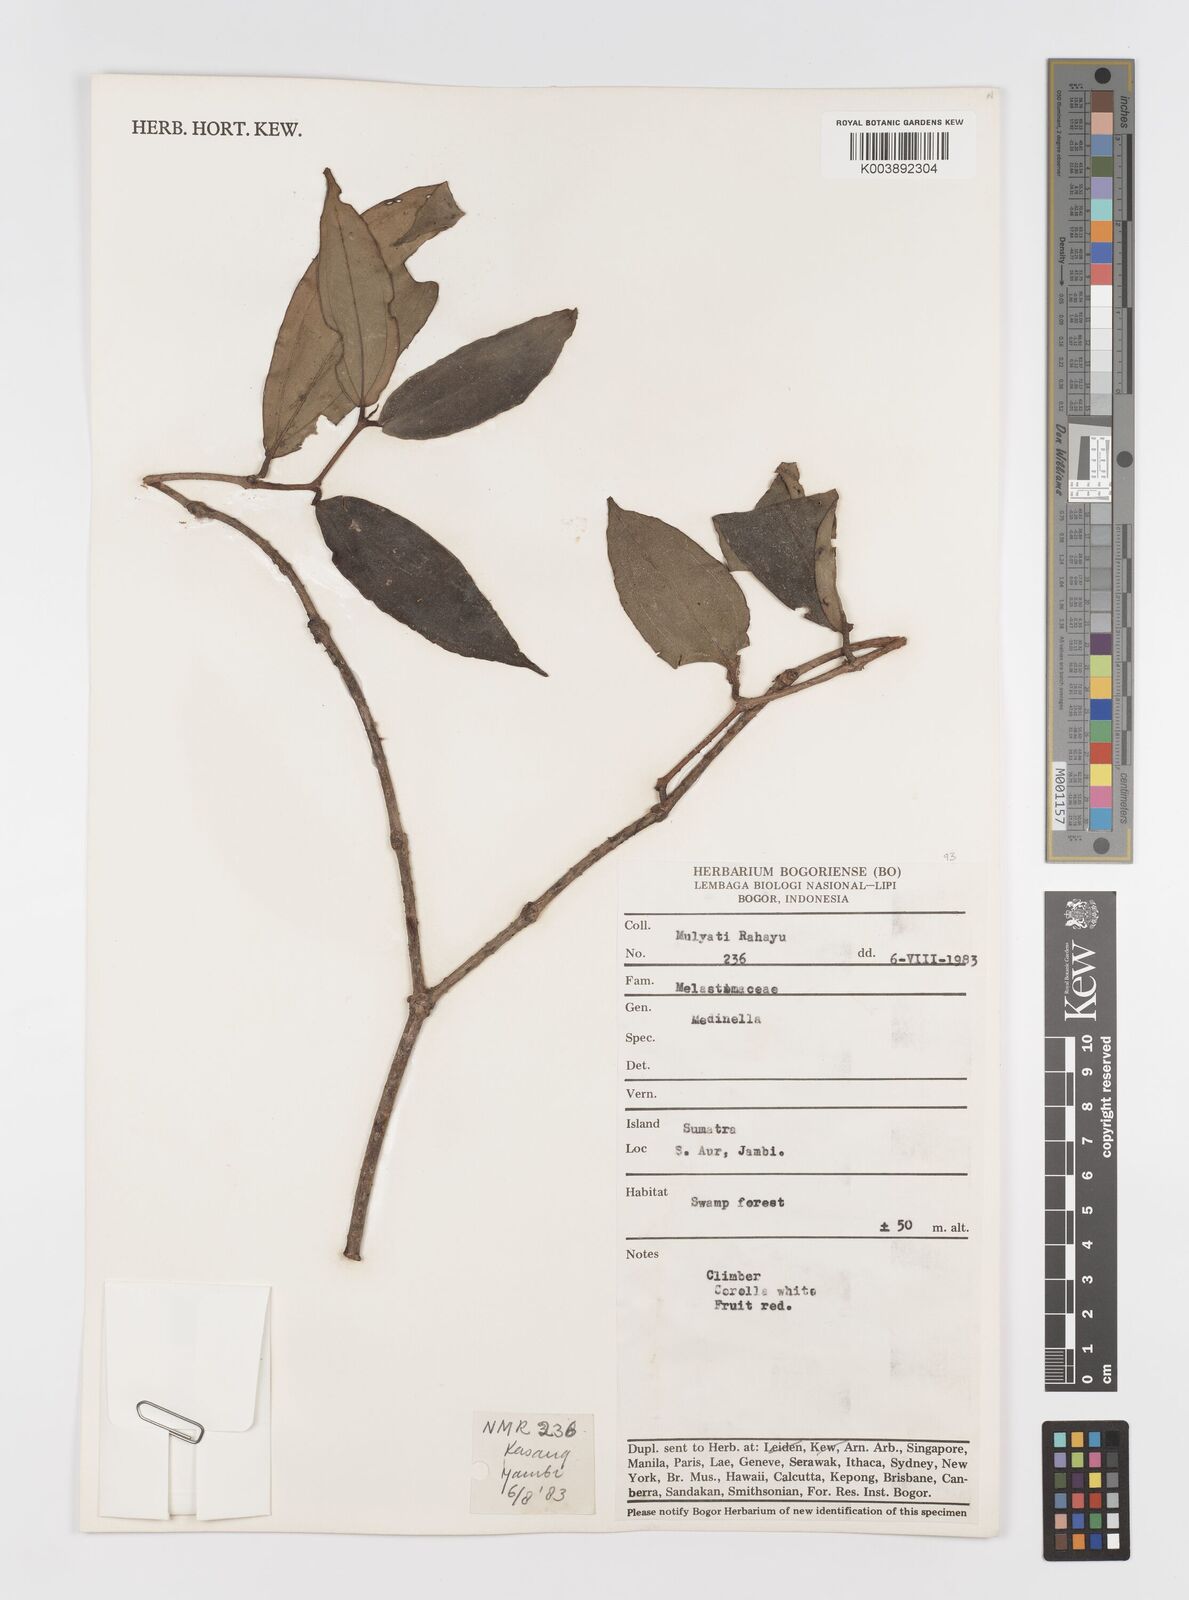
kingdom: Plantae
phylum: Tracheophyta
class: Magnoliopsida
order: Myrtales
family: Melastomataceae
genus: Medinilla
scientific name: Medinilla
